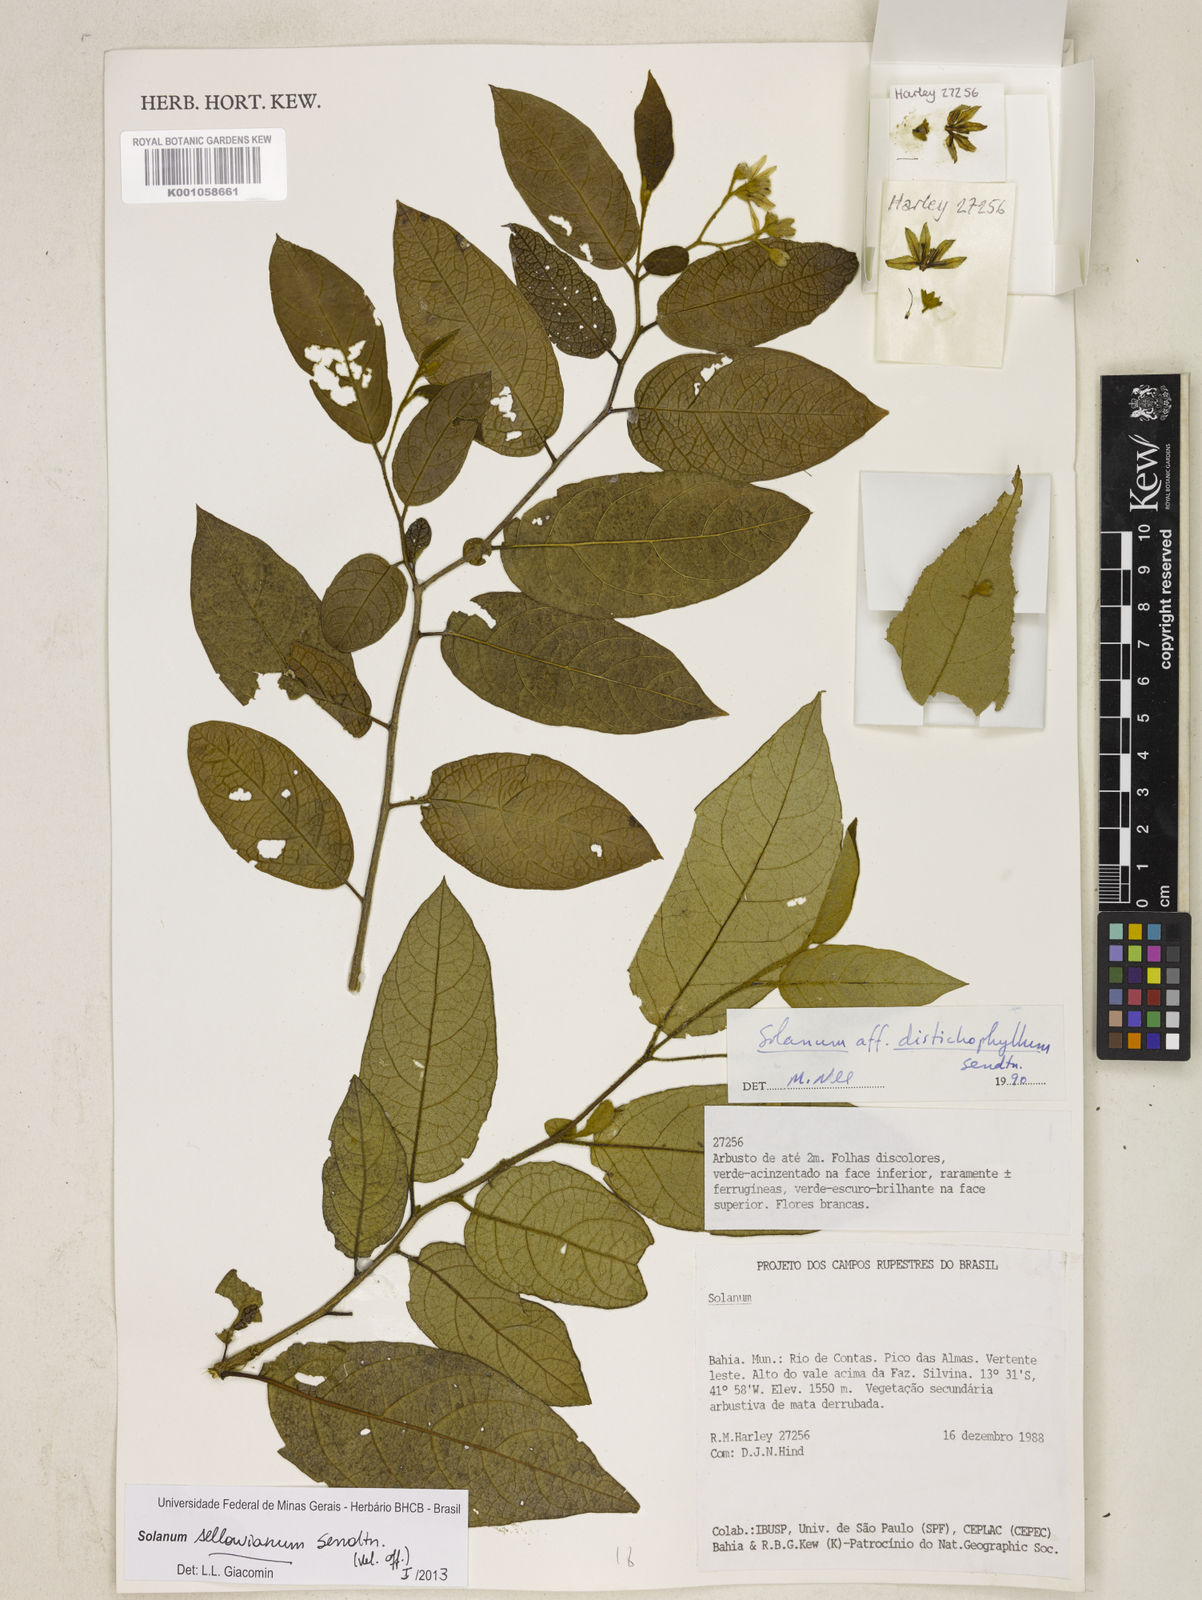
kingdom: Plantae
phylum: Tracheophyta
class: Magnoliopsida
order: Solanales
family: Solanaceae
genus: Solanum
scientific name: Solanum sellowianum
